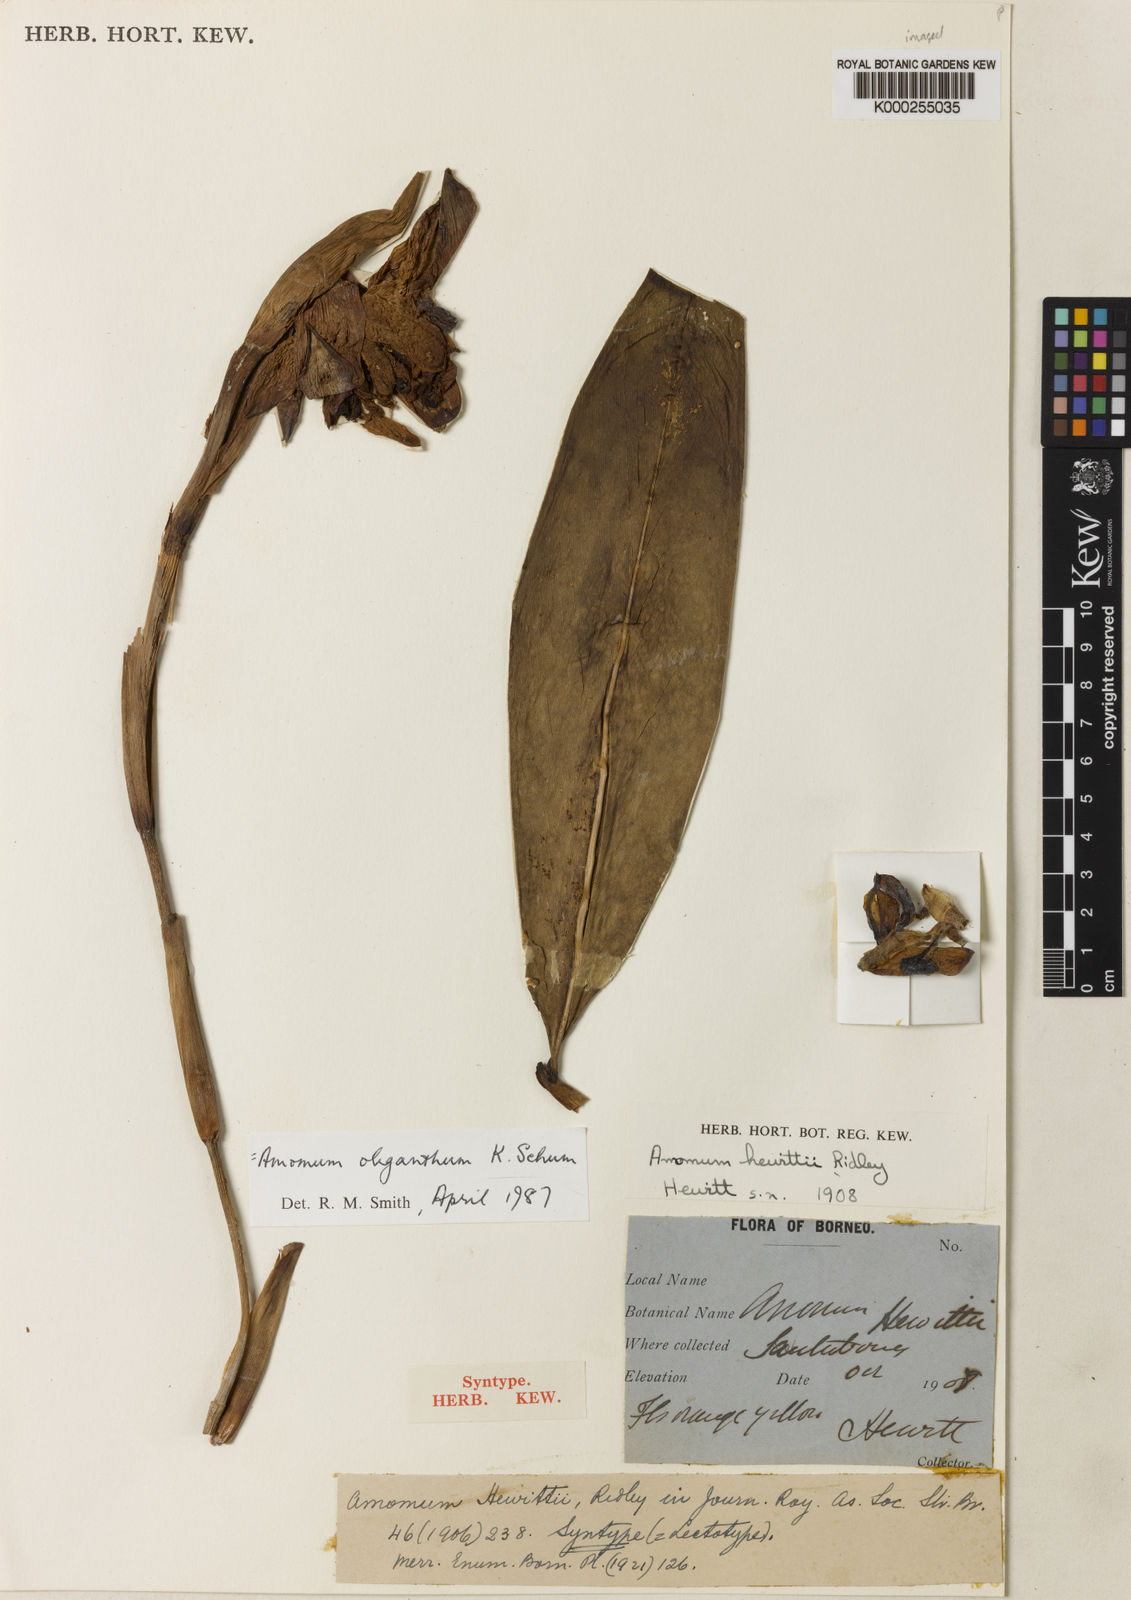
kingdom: Plantae
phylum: Tracheophyta
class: Liliopsida
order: Zingiberales
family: Zingiberaceae
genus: Meistera
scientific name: Meistera oligantha
